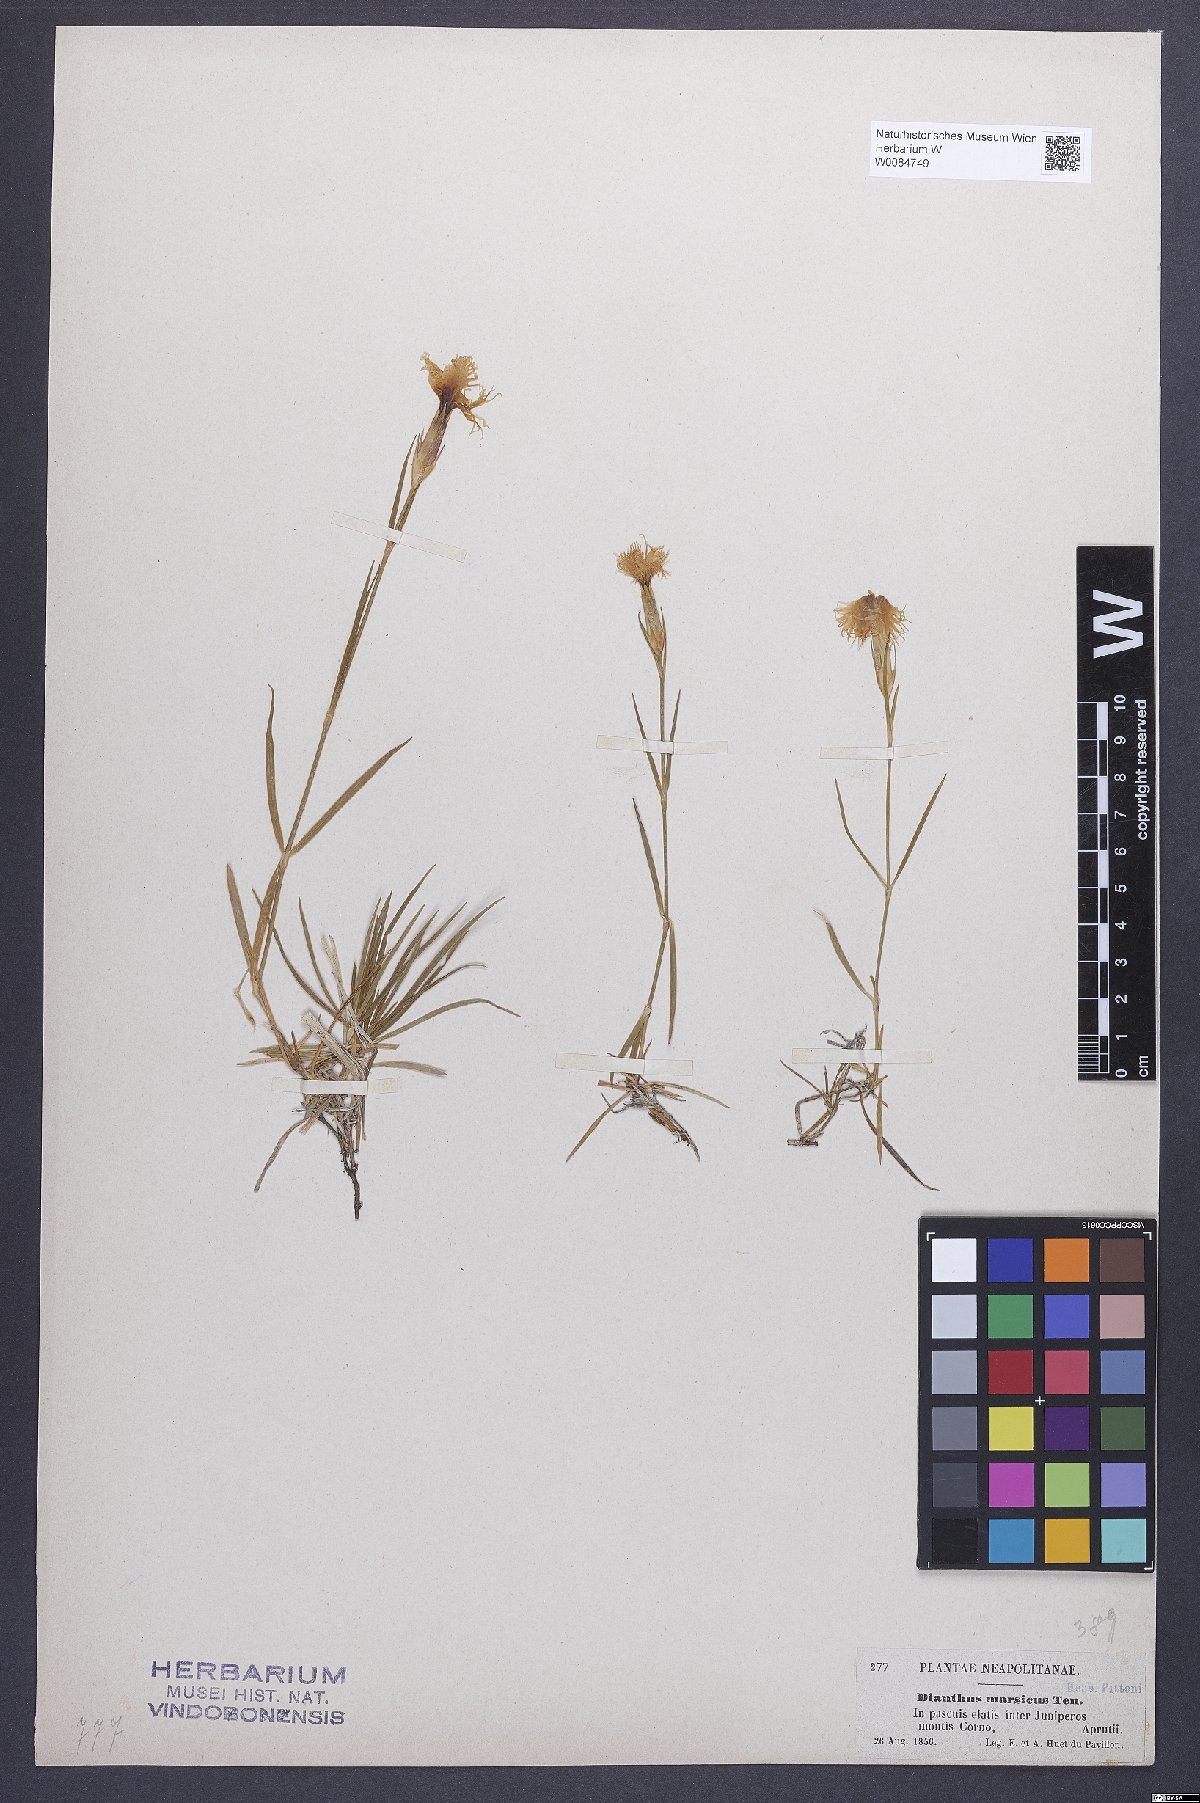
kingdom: Plantae
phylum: Tracheophyta
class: Magnoliopsida
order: Caryophyllales
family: Caryophyllaceae
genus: Dianthus
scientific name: Dianthus hyssopifolius
